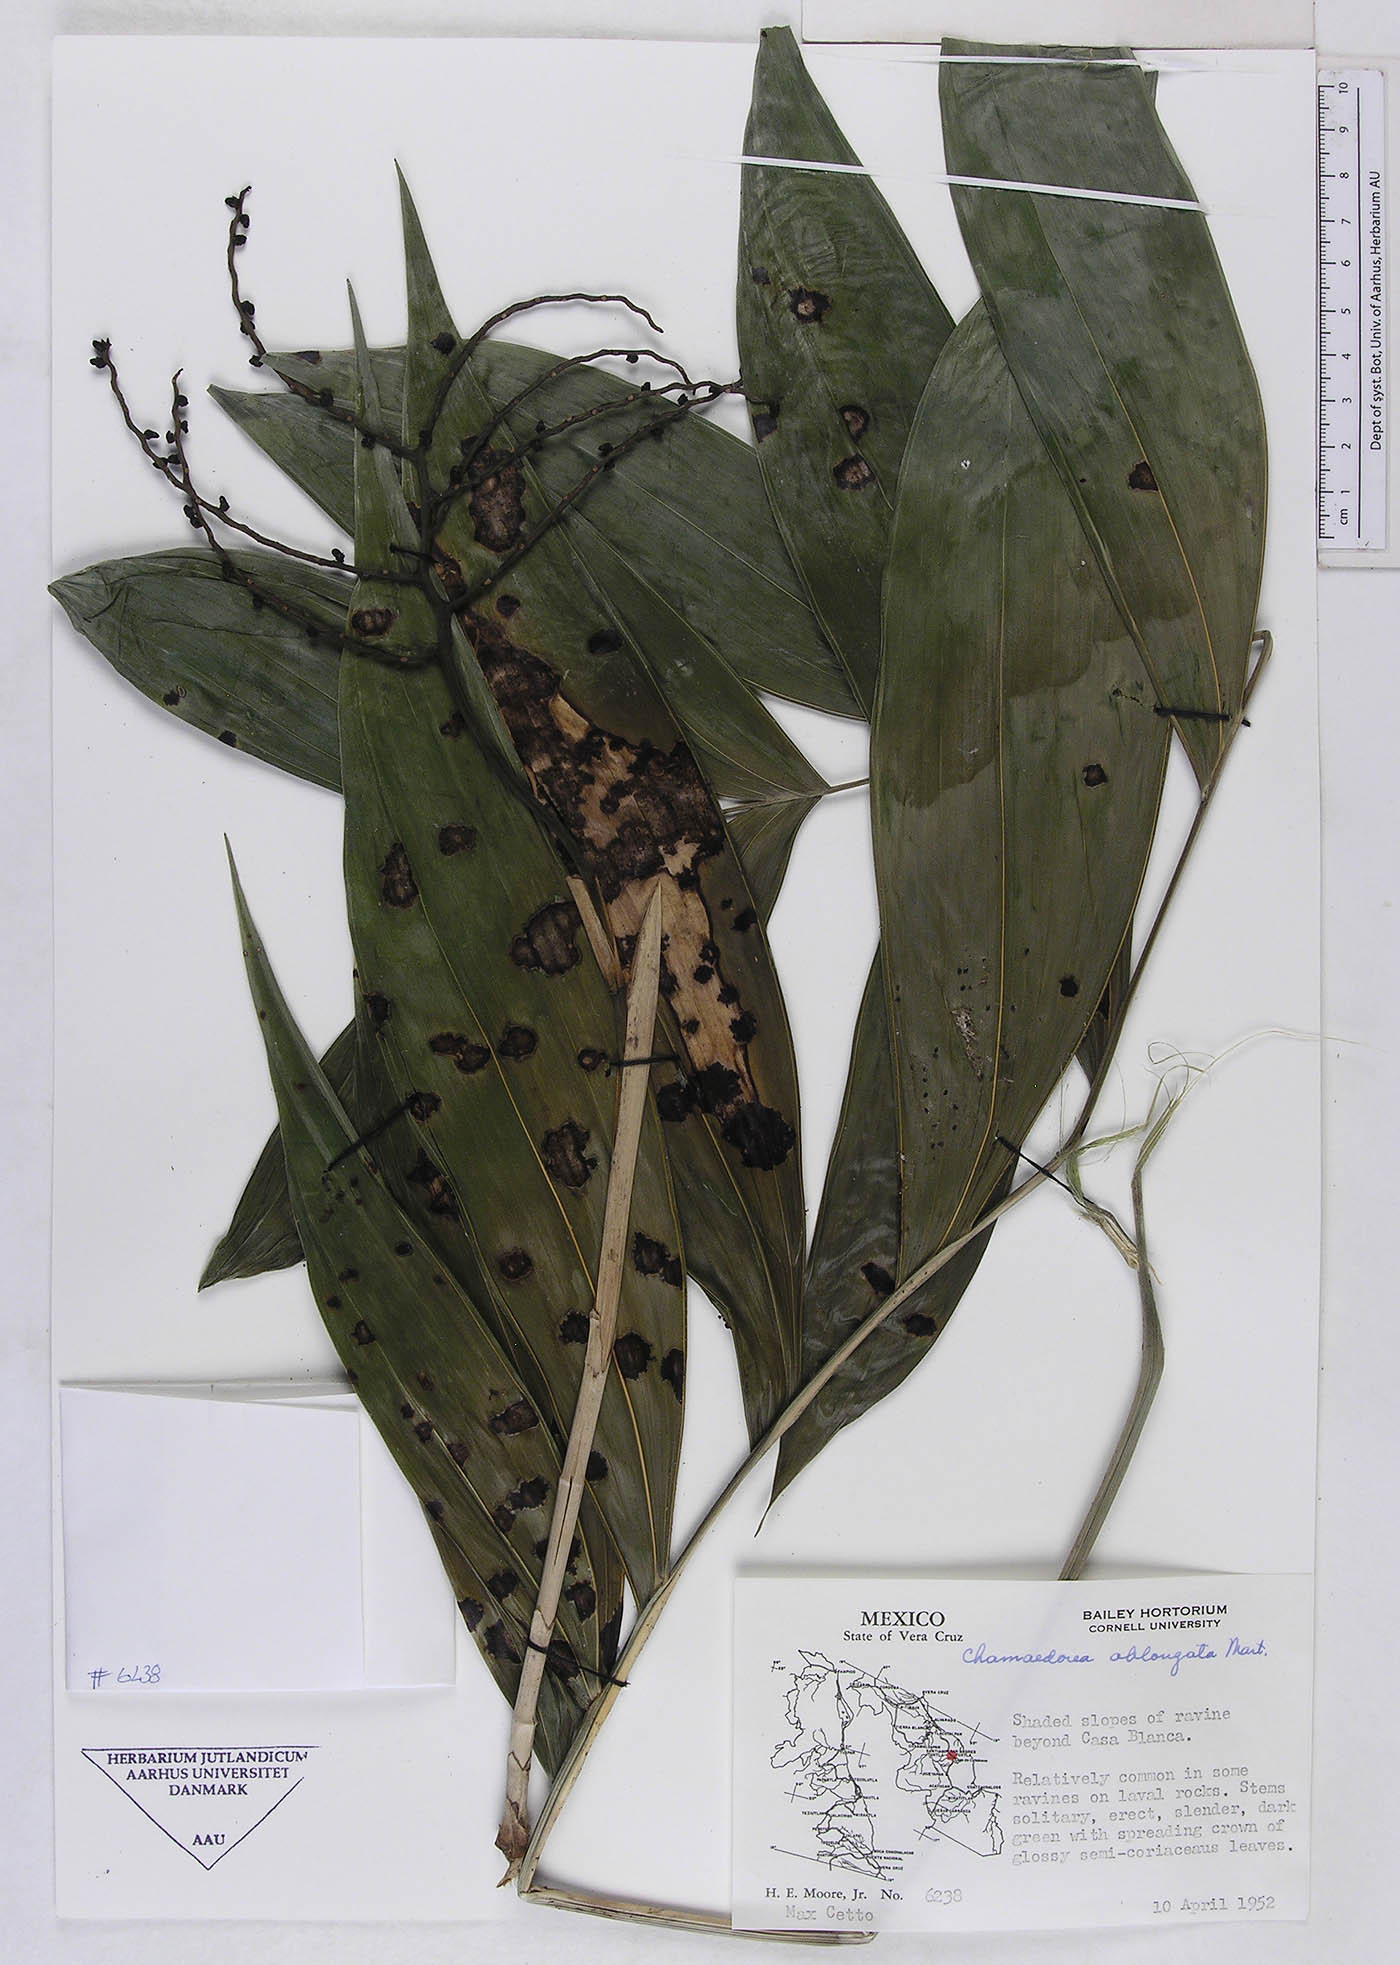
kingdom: Plantae
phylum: Tracheophyta
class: Liliopsida
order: Arecales
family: Arecaceae
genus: Chamaedorea
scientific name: Chamaedorea oblongata
